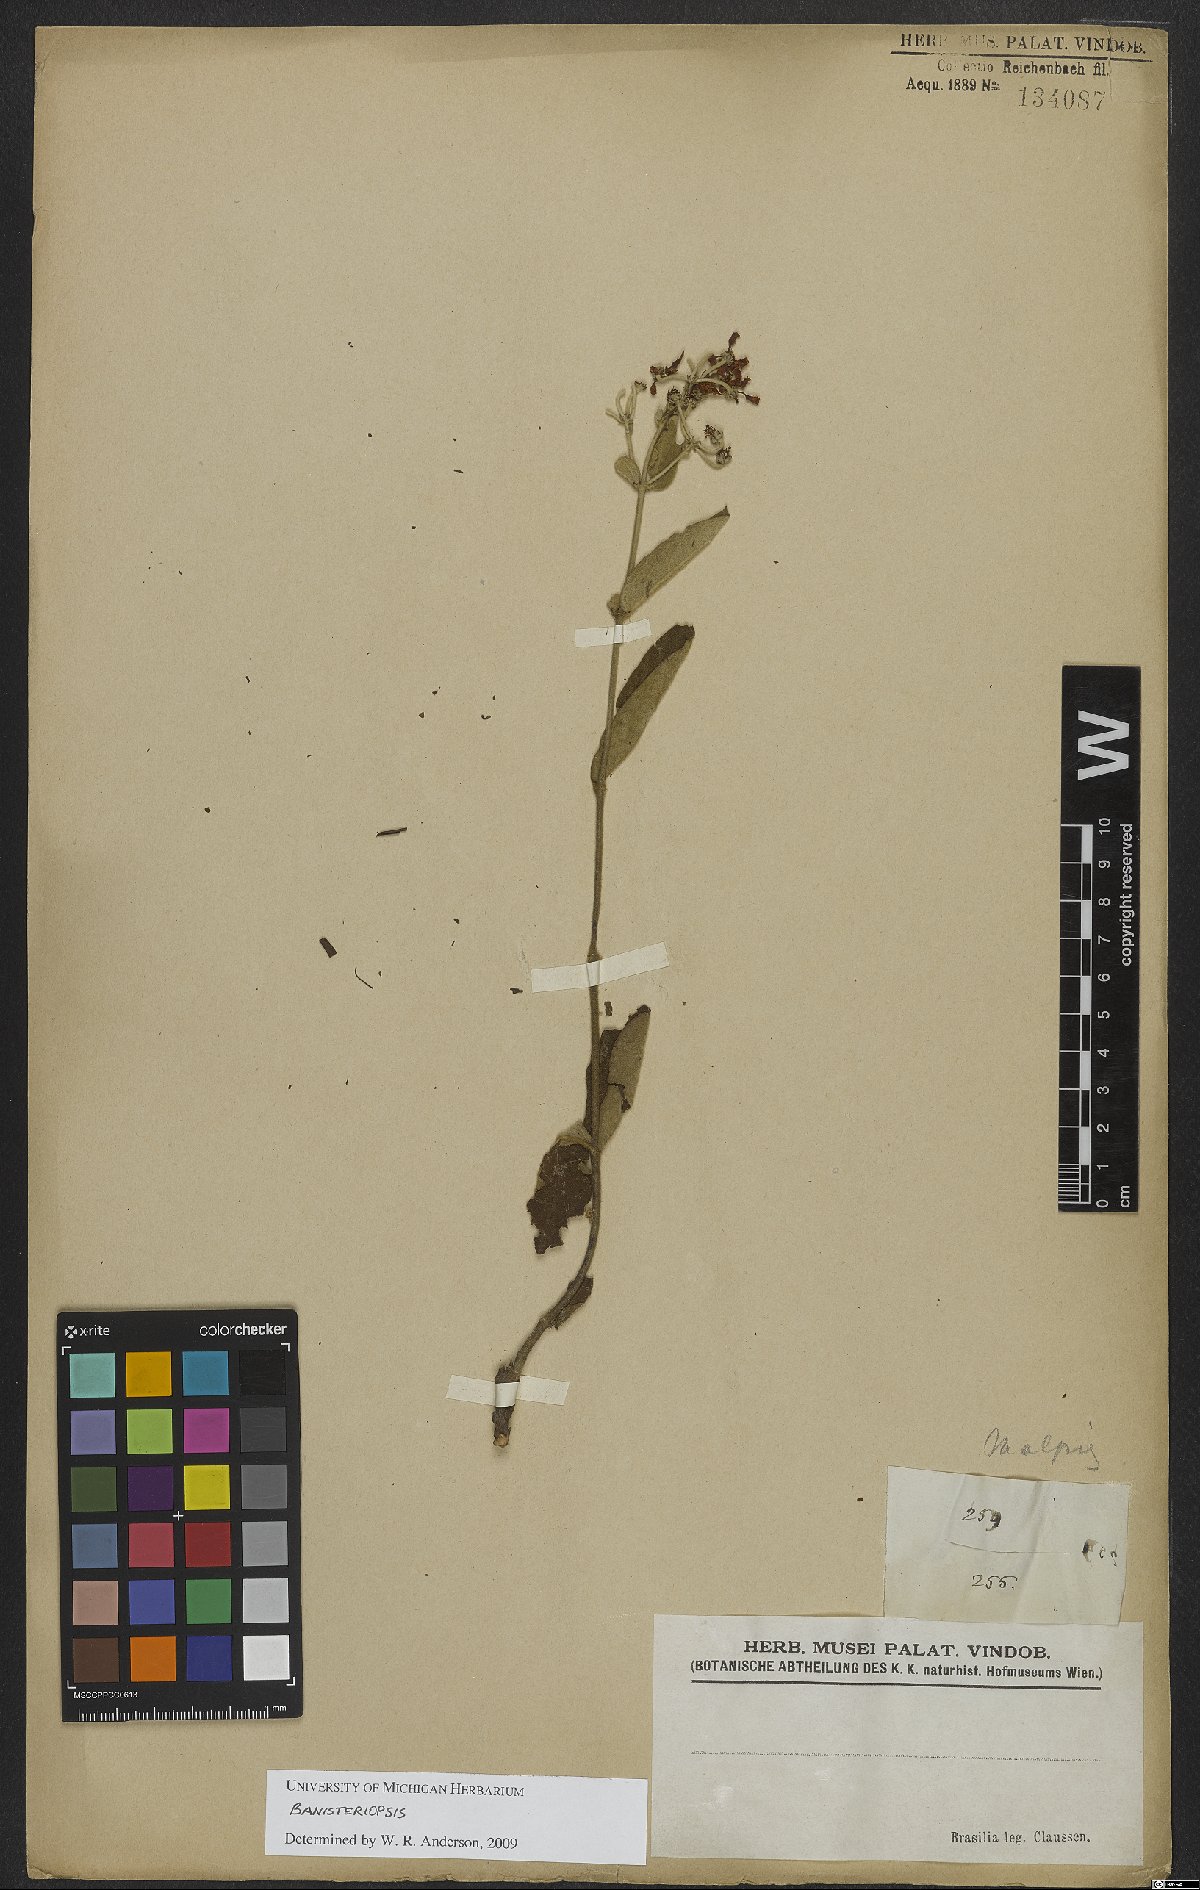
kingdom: Plantae
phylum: Tracheophyta
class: Magnoliopsida
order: Malpighiales
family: Malpighiaceae
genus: Banisteriopsis
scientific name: Banisteriopsis
